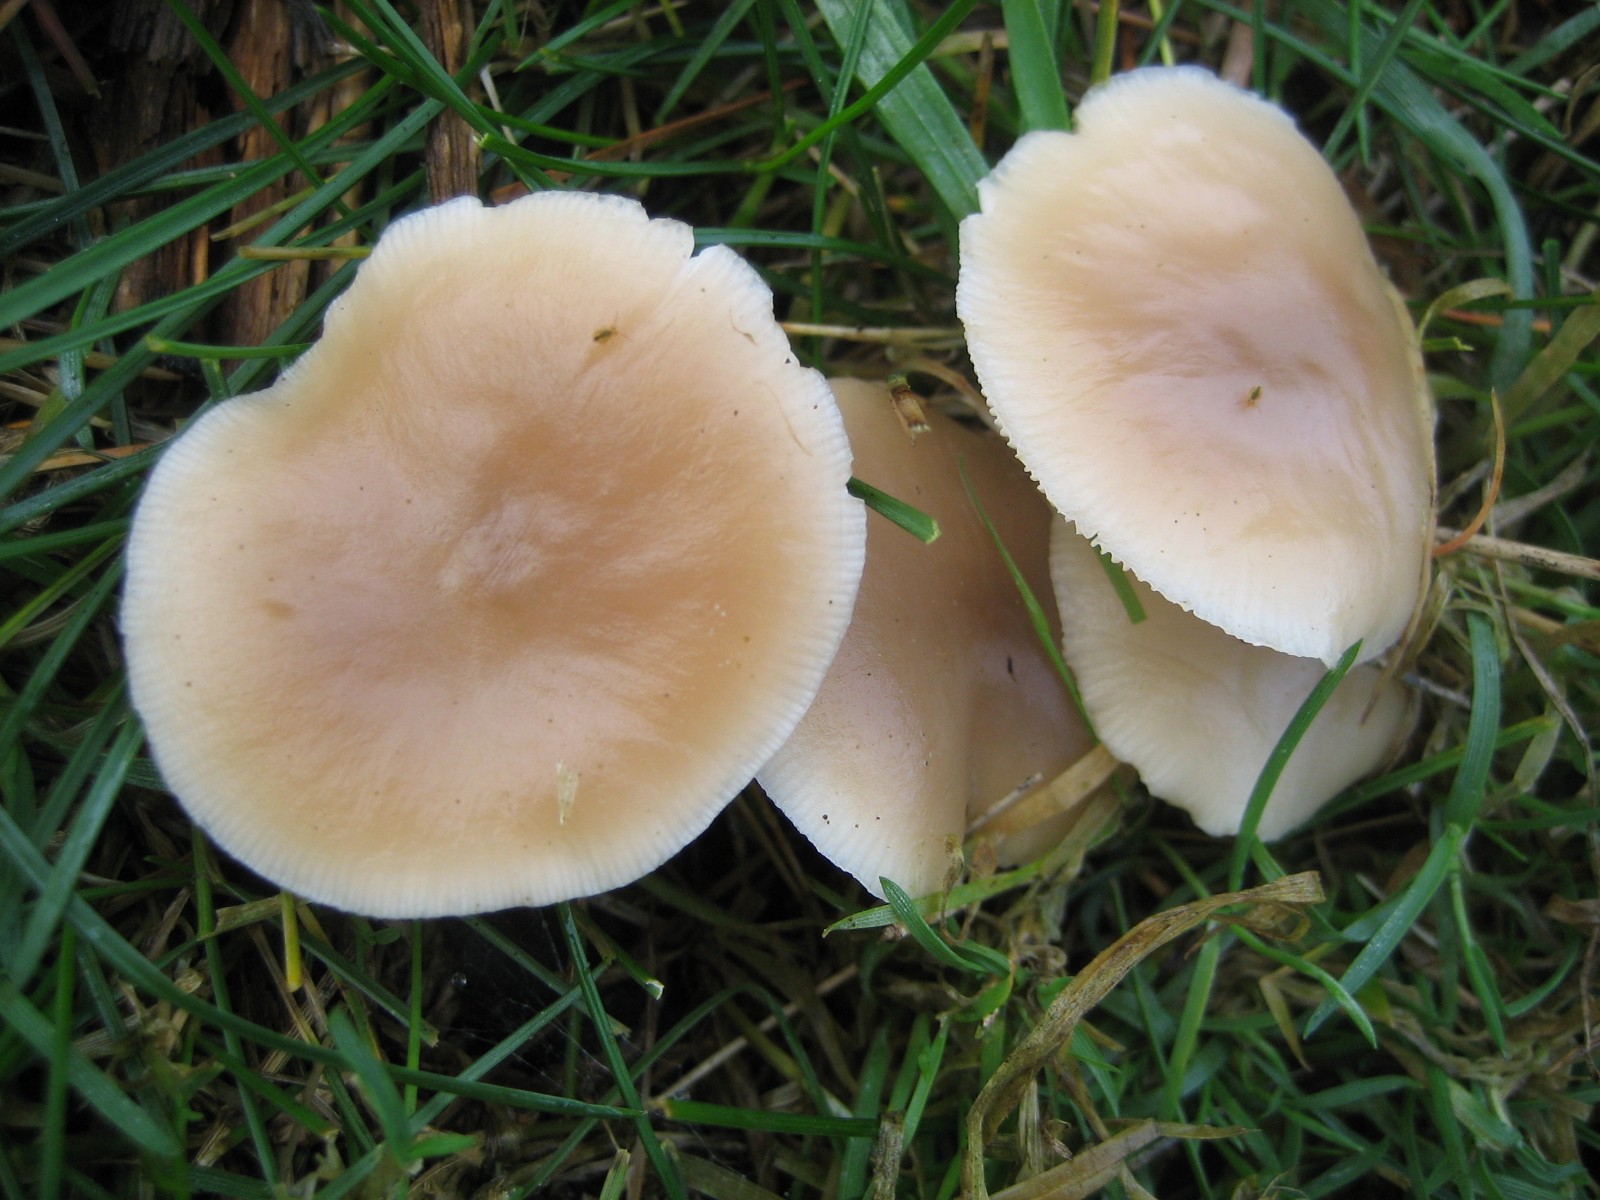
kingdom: Fungi
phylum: Basidiomycota
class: Agaricomycetes
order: Agaricales
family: Omphalotaceae
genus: Rhodocollybia
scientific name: Rhodocollybia asema
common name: horngrå fladhat
